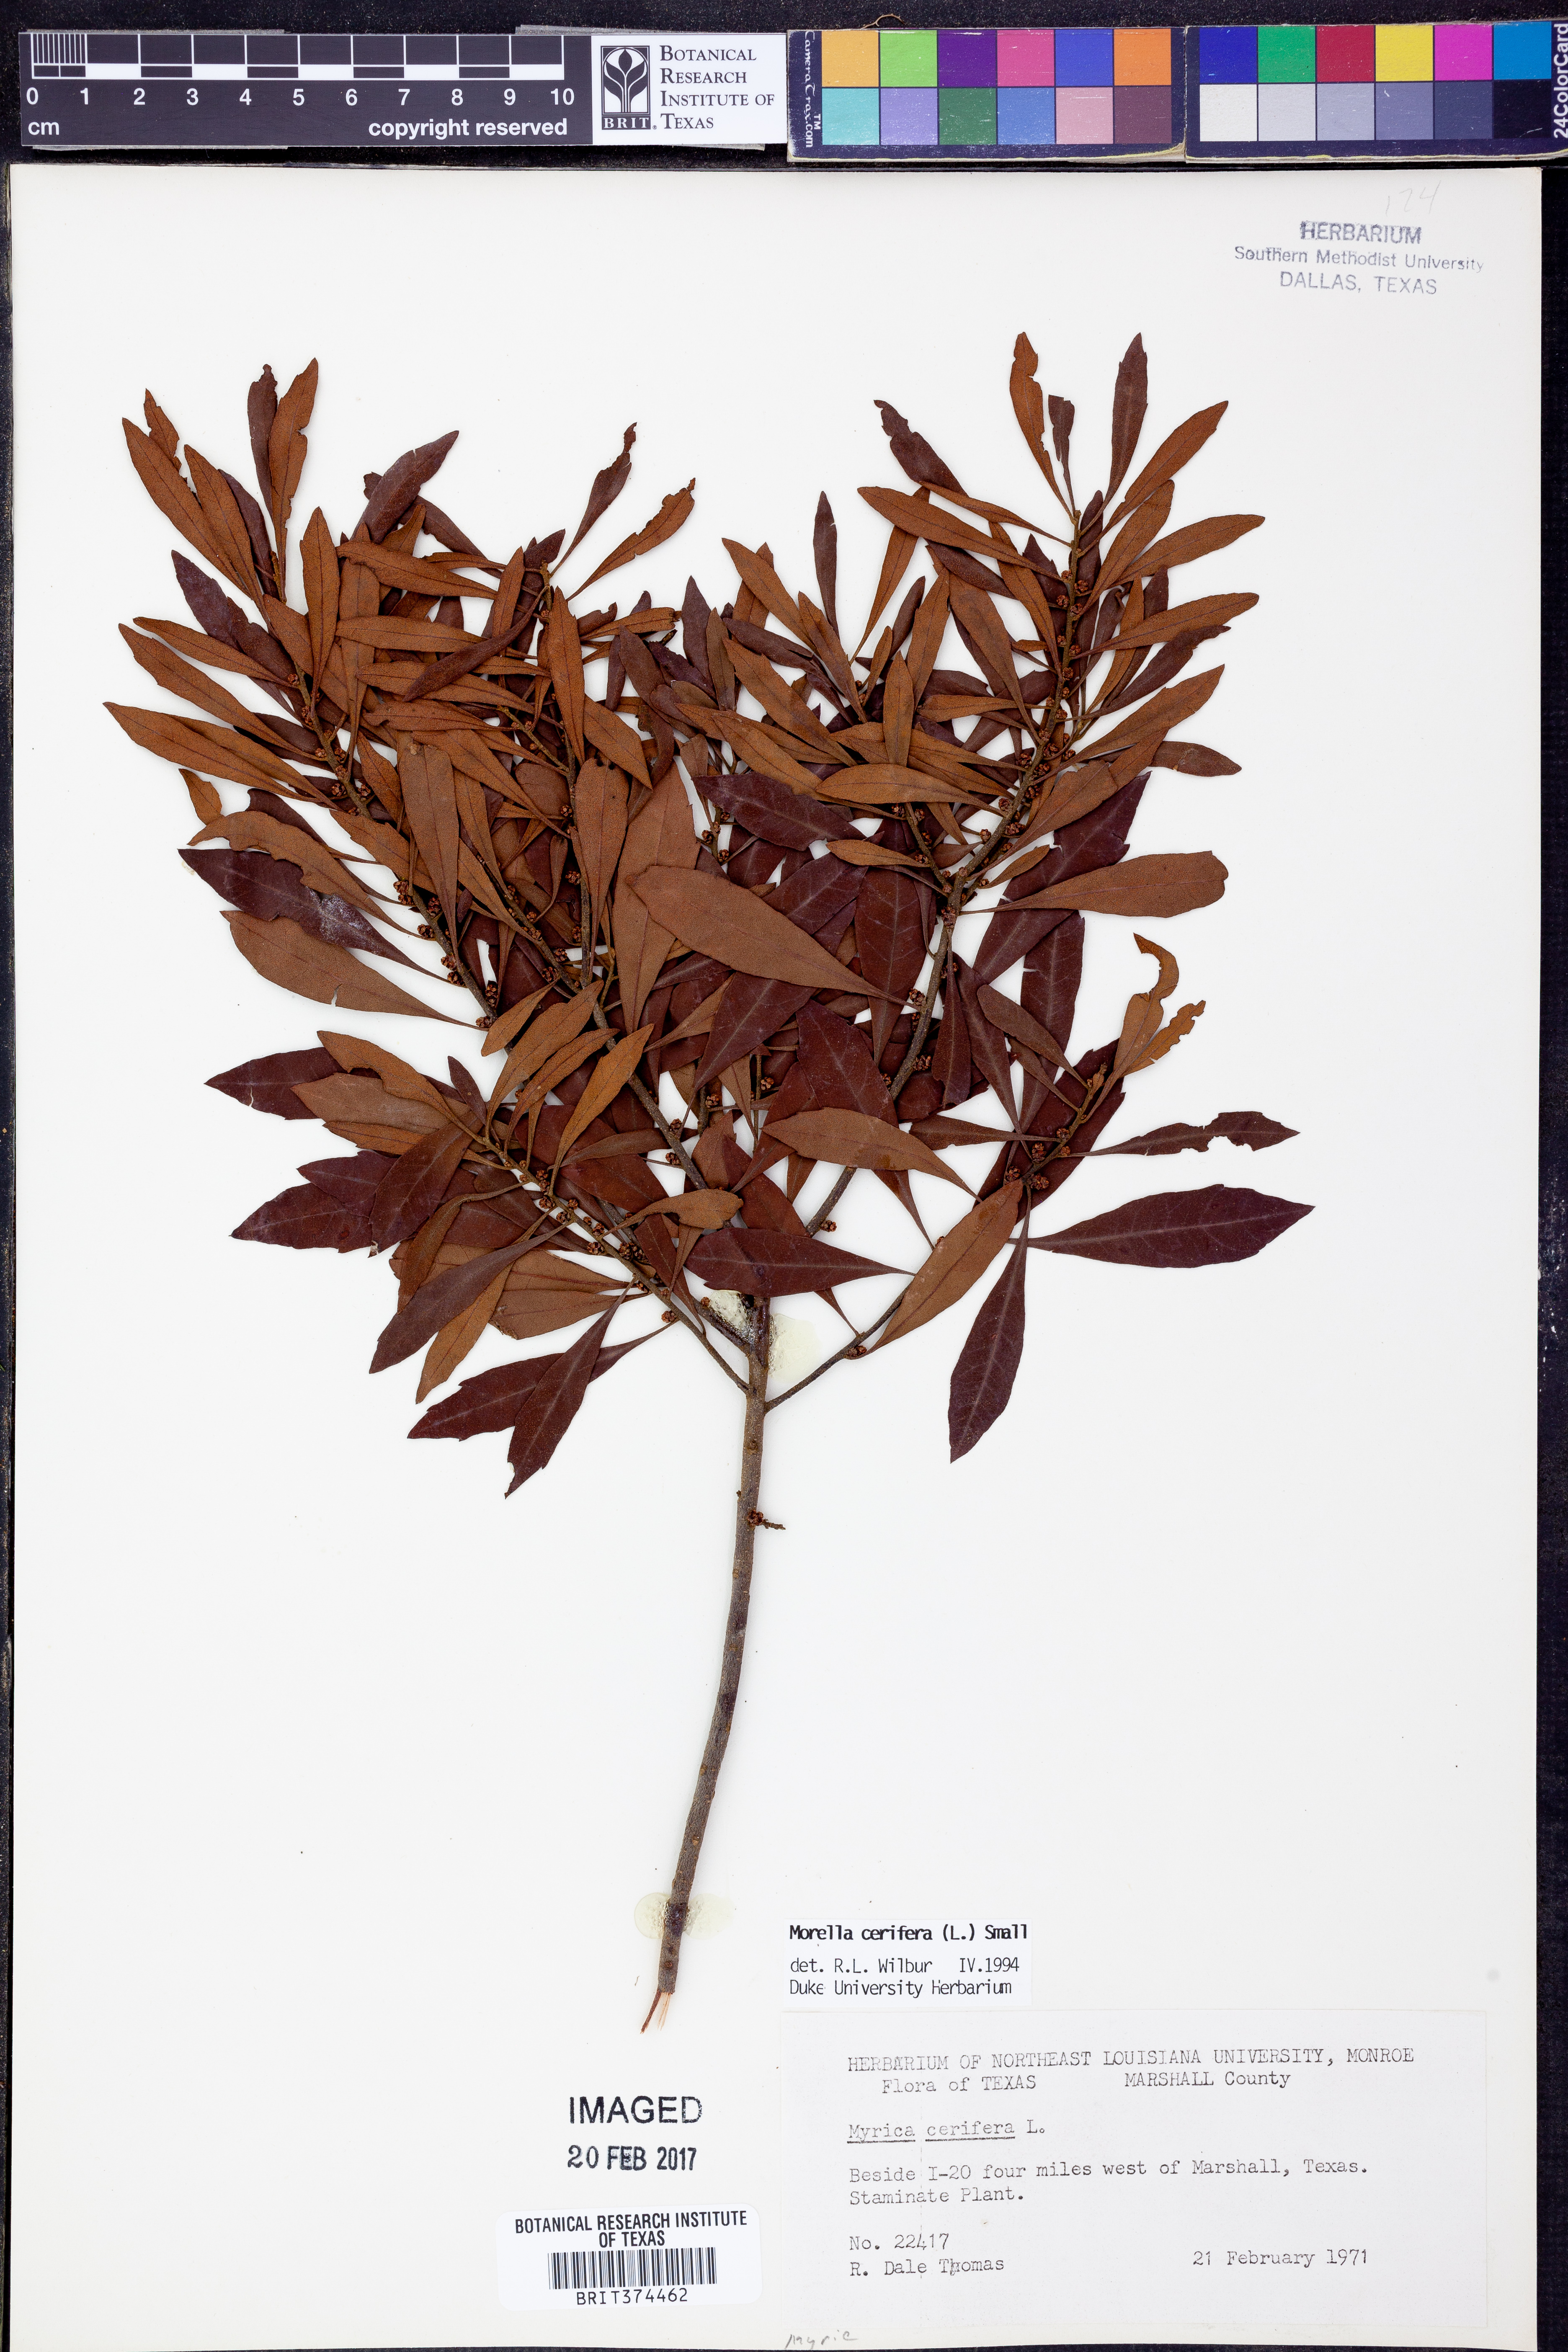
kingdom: Plantae
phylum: Tracheophyta
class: Magnoliopsida
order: Fagales
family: Myricaceae
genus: Morella
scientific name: Morella cerifera
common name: Wax myrtle
